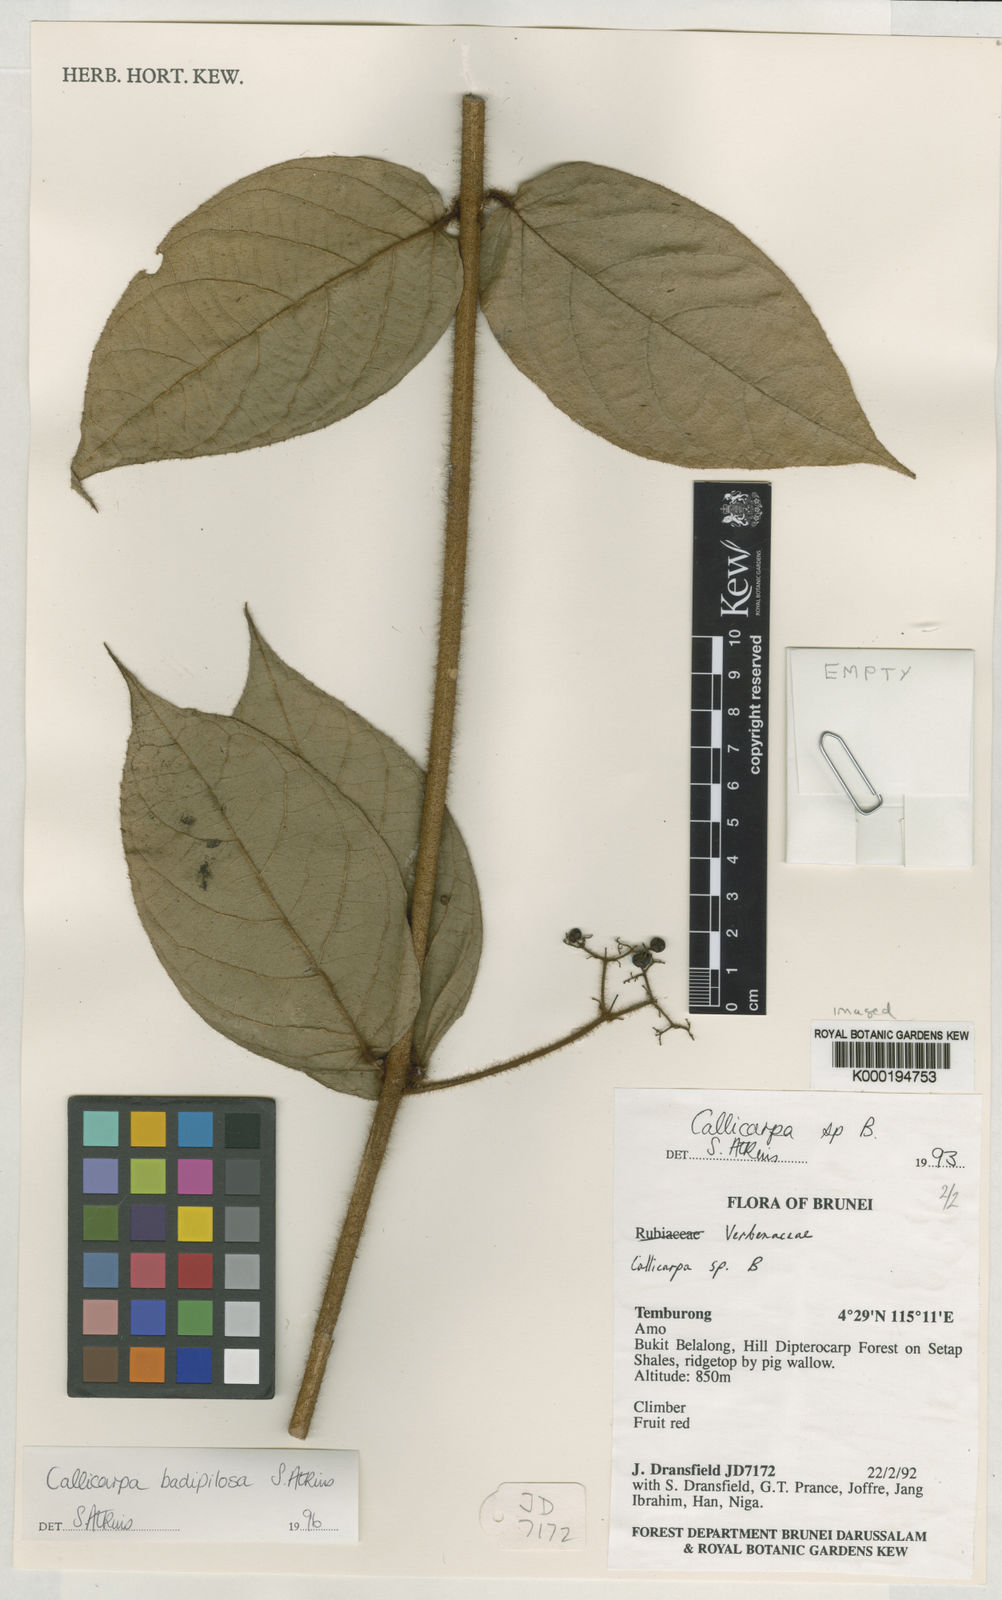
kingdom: Plantae
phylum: Tracheophyta
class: Magnoliopsida
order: Lamiales
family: Lamiaceae
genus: Callicarpa
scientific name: Callicarpa badipilosa
